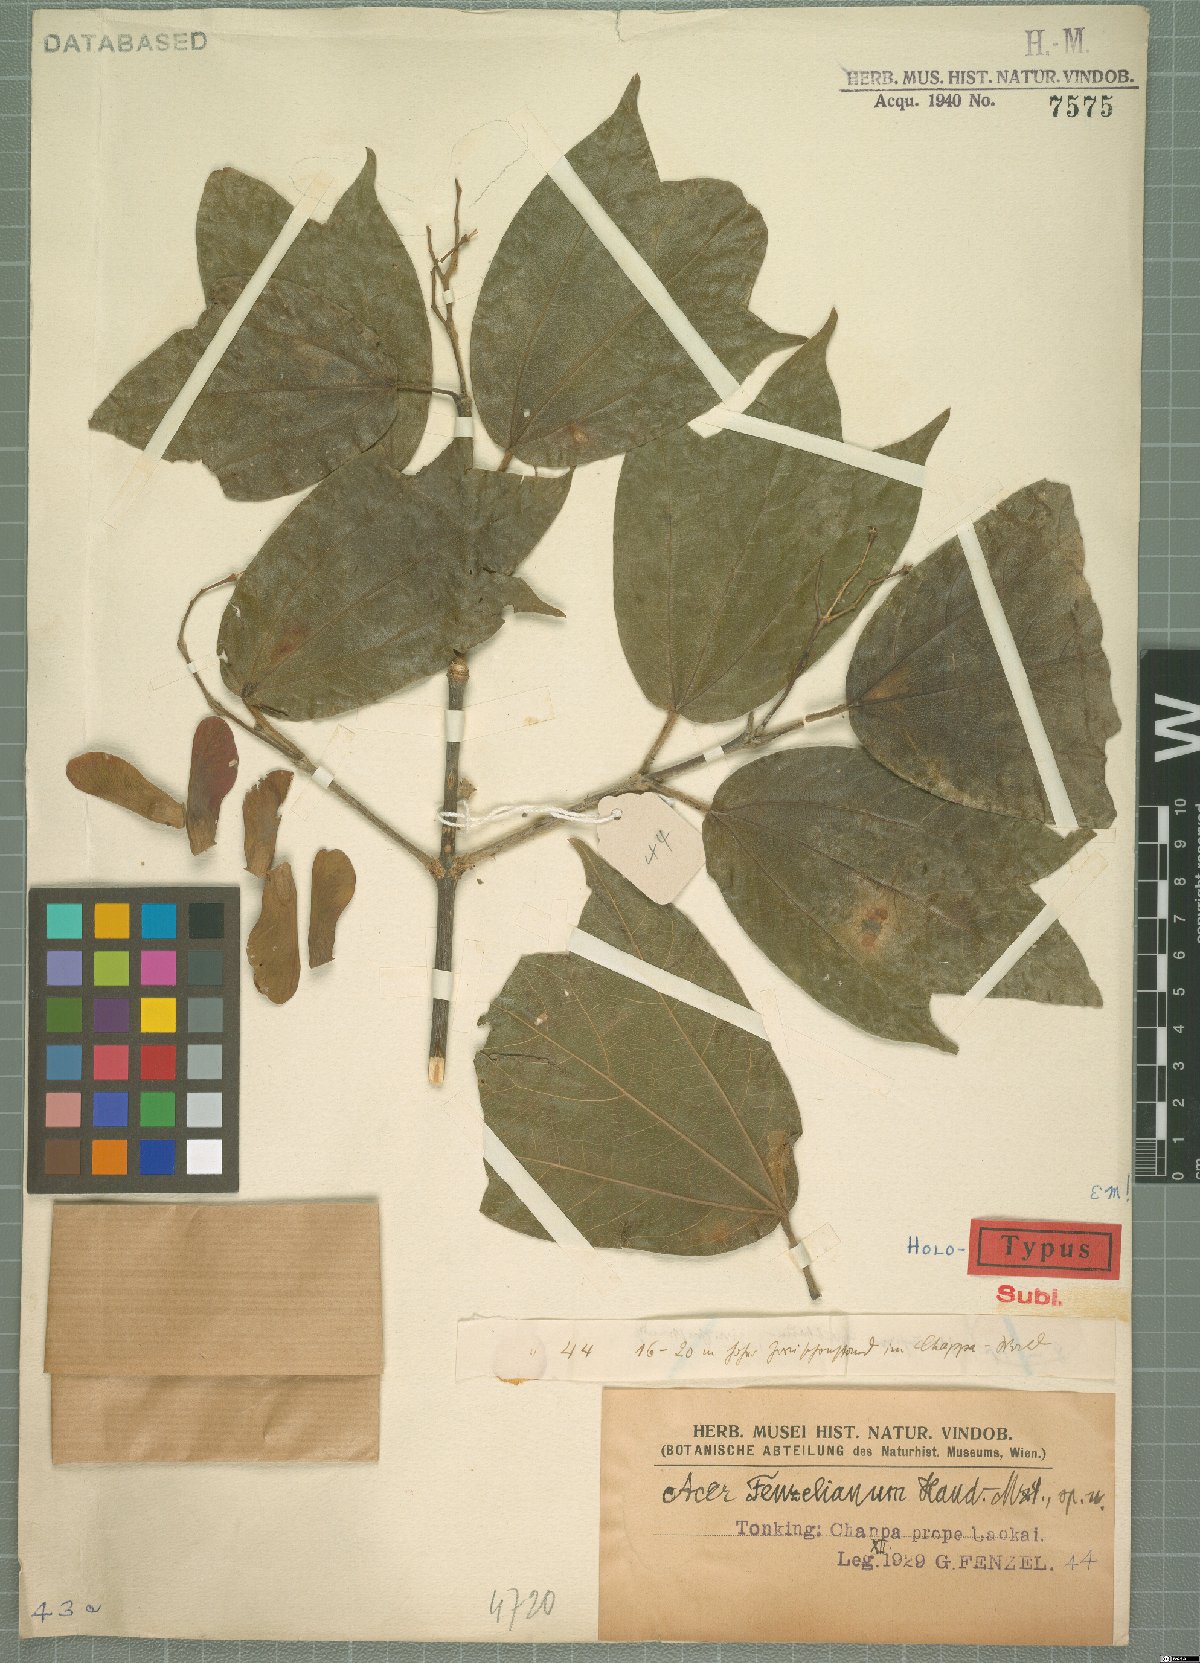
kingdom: Plantae
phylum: Tracheophyta
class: Magnoliopsida
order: Sapindales
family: Sapindaceae
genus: Acer
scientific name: Acer fenzelianum
